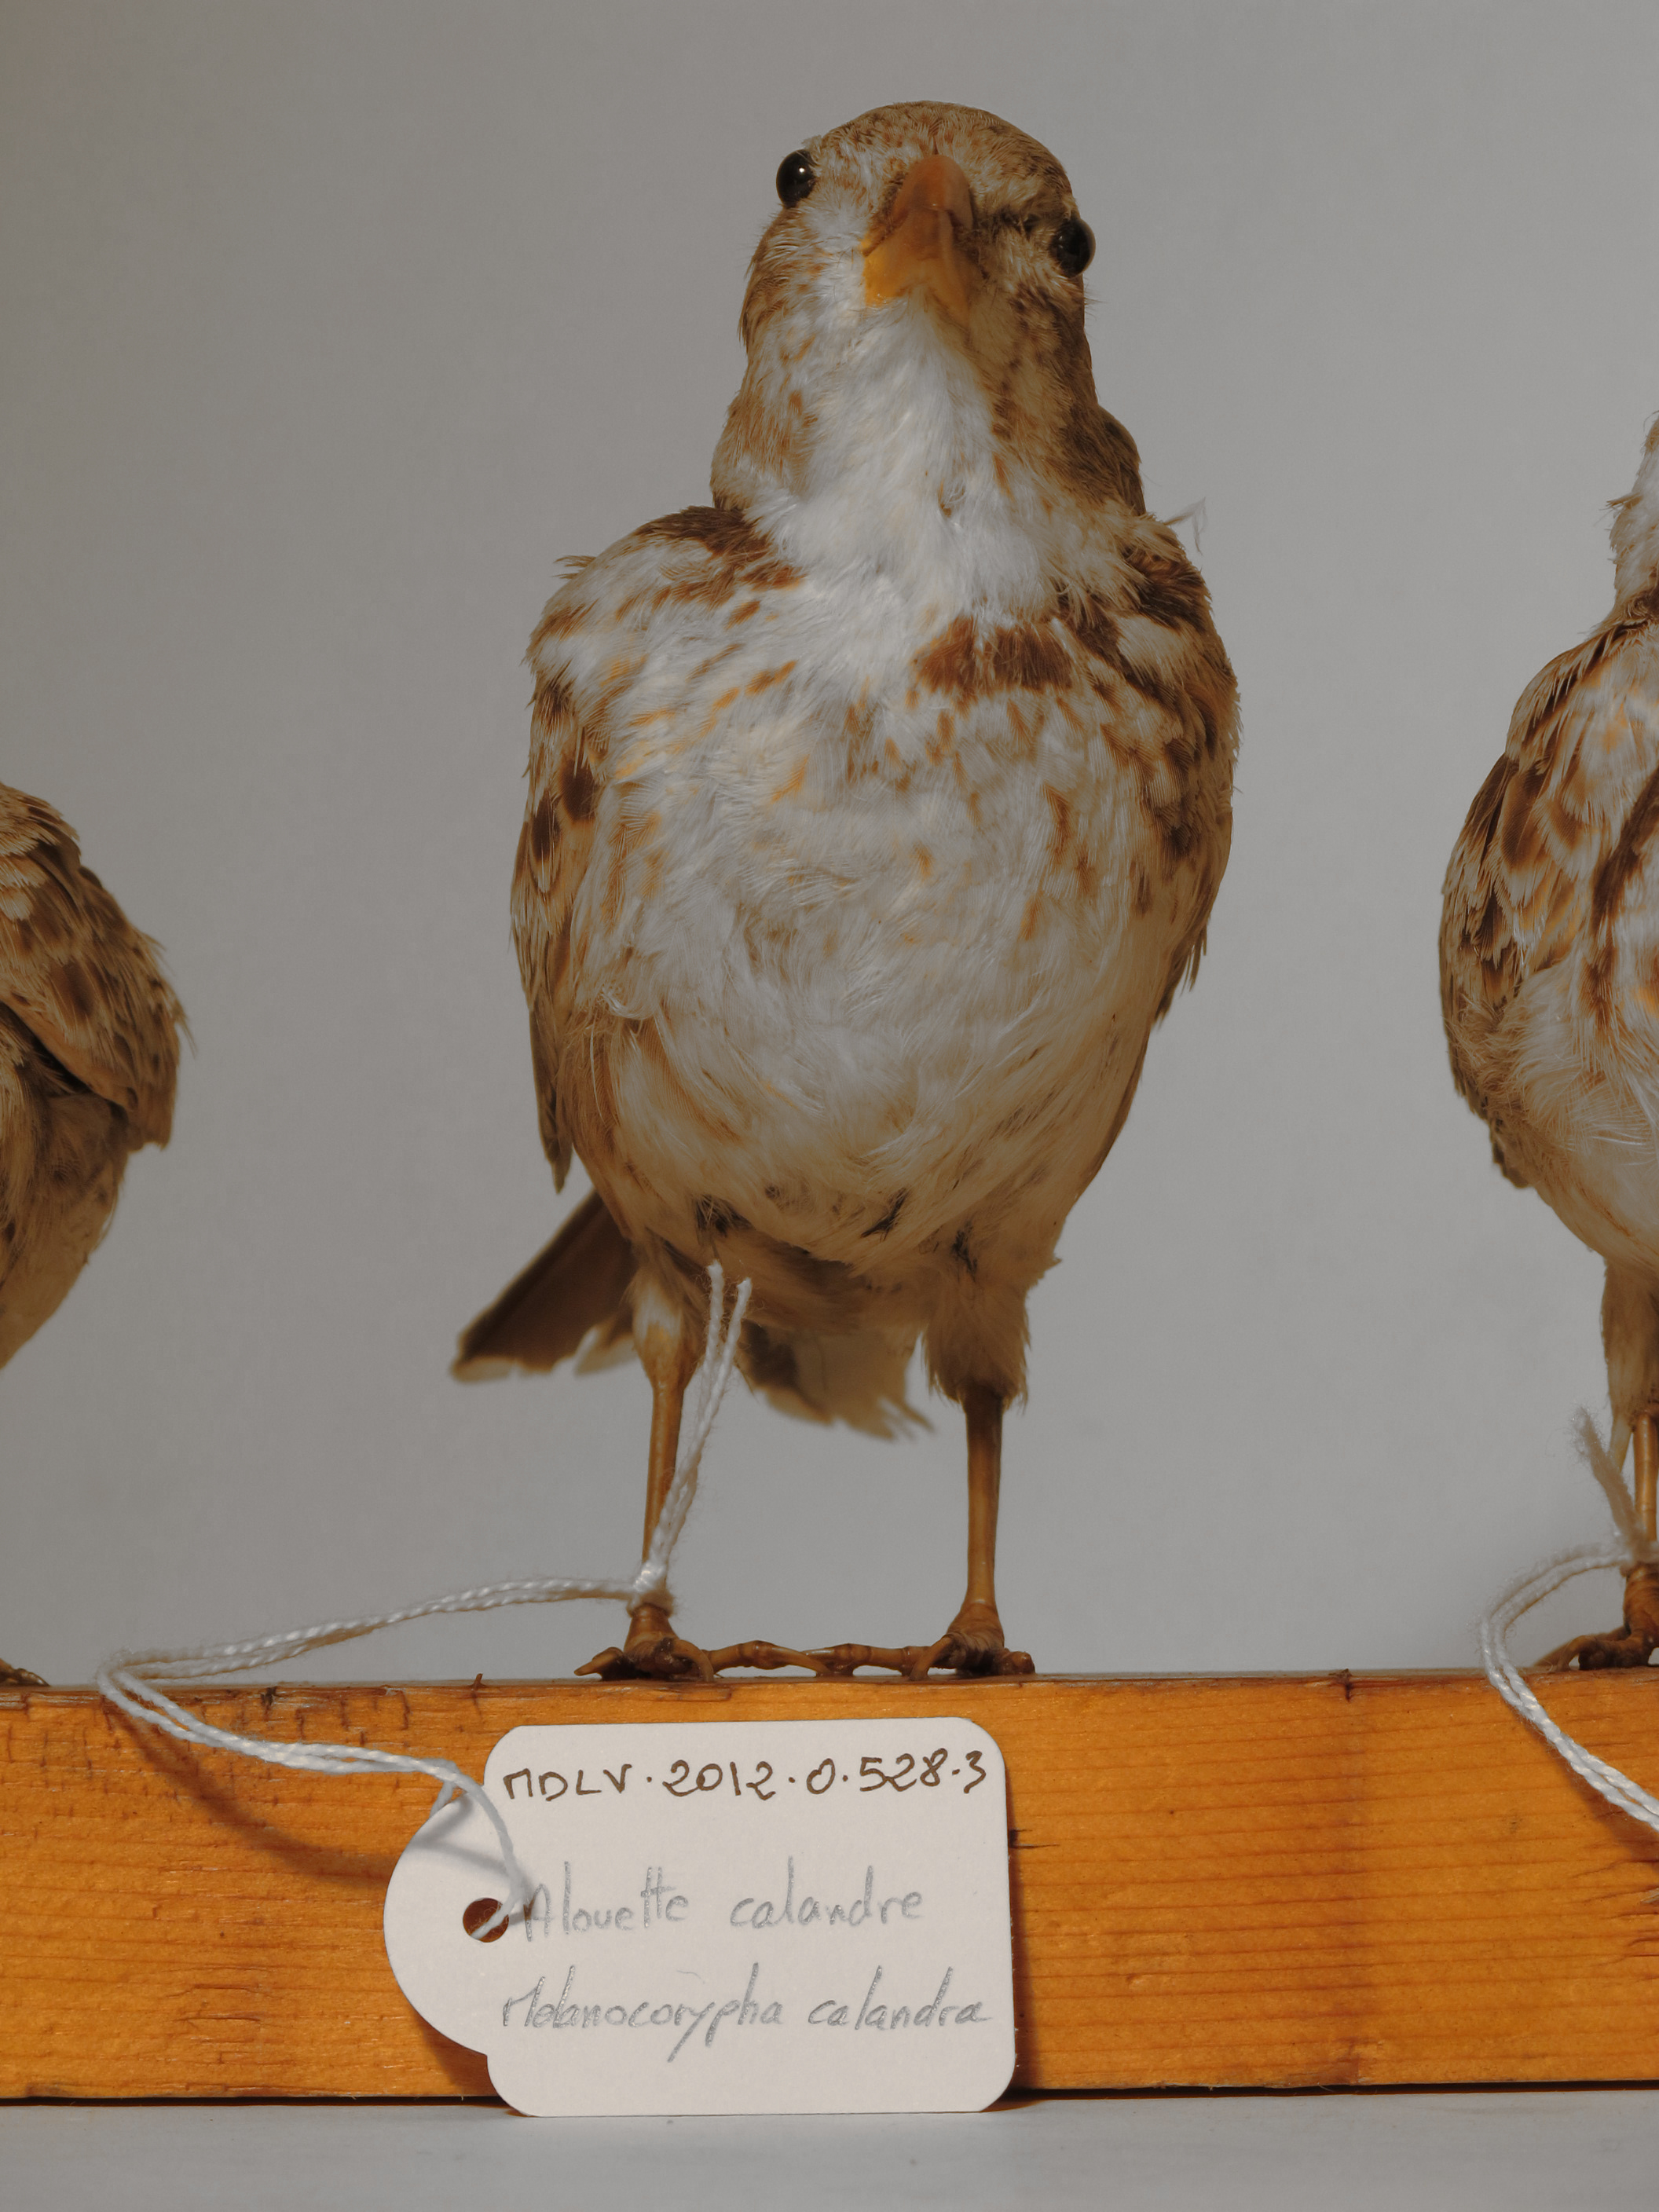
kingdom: Animalia
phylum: Chordata
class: Aves
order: Passeriformes
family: Alaudidae
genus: Melanocorypha
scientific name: Melanocorypha calandra
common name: Calandra Lark
